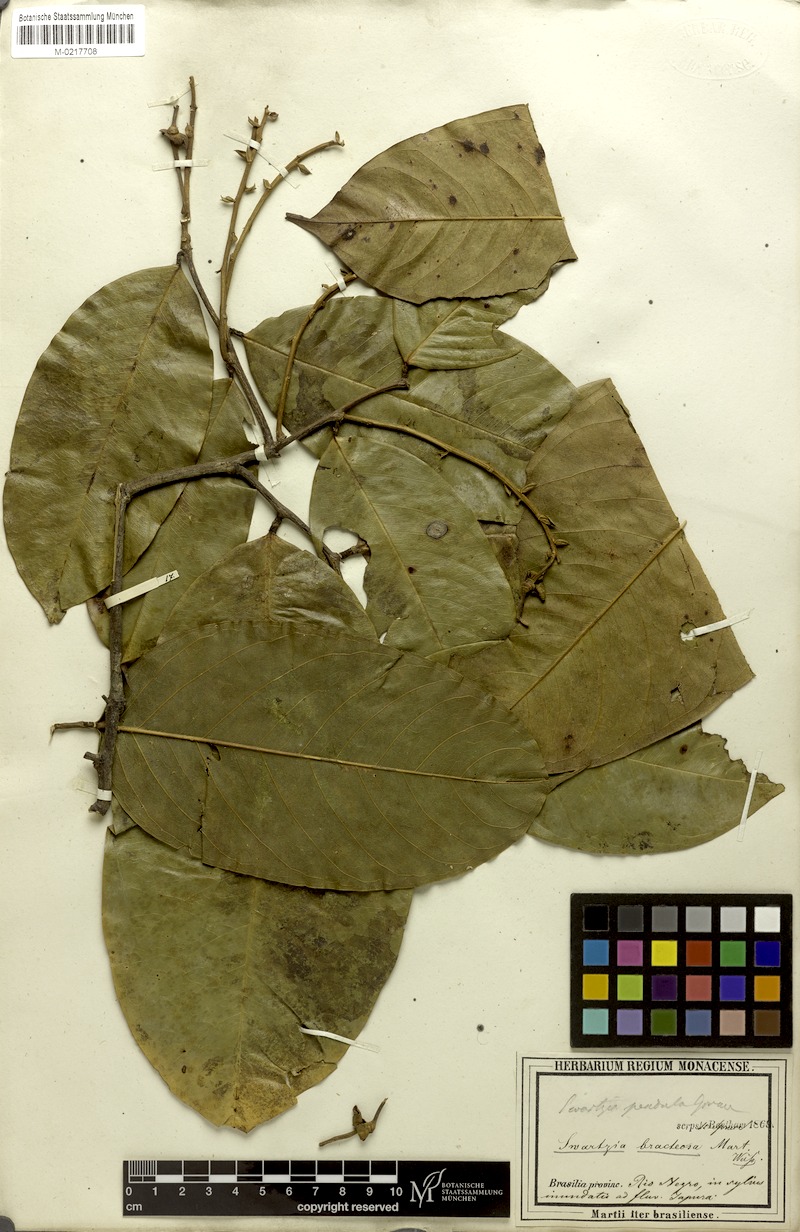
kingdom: Plantae
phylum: Tracheophyta
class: Magnoliopsida
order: Fabales
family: Fabaceae
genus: Swartzia
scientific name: Swartzia pendula
